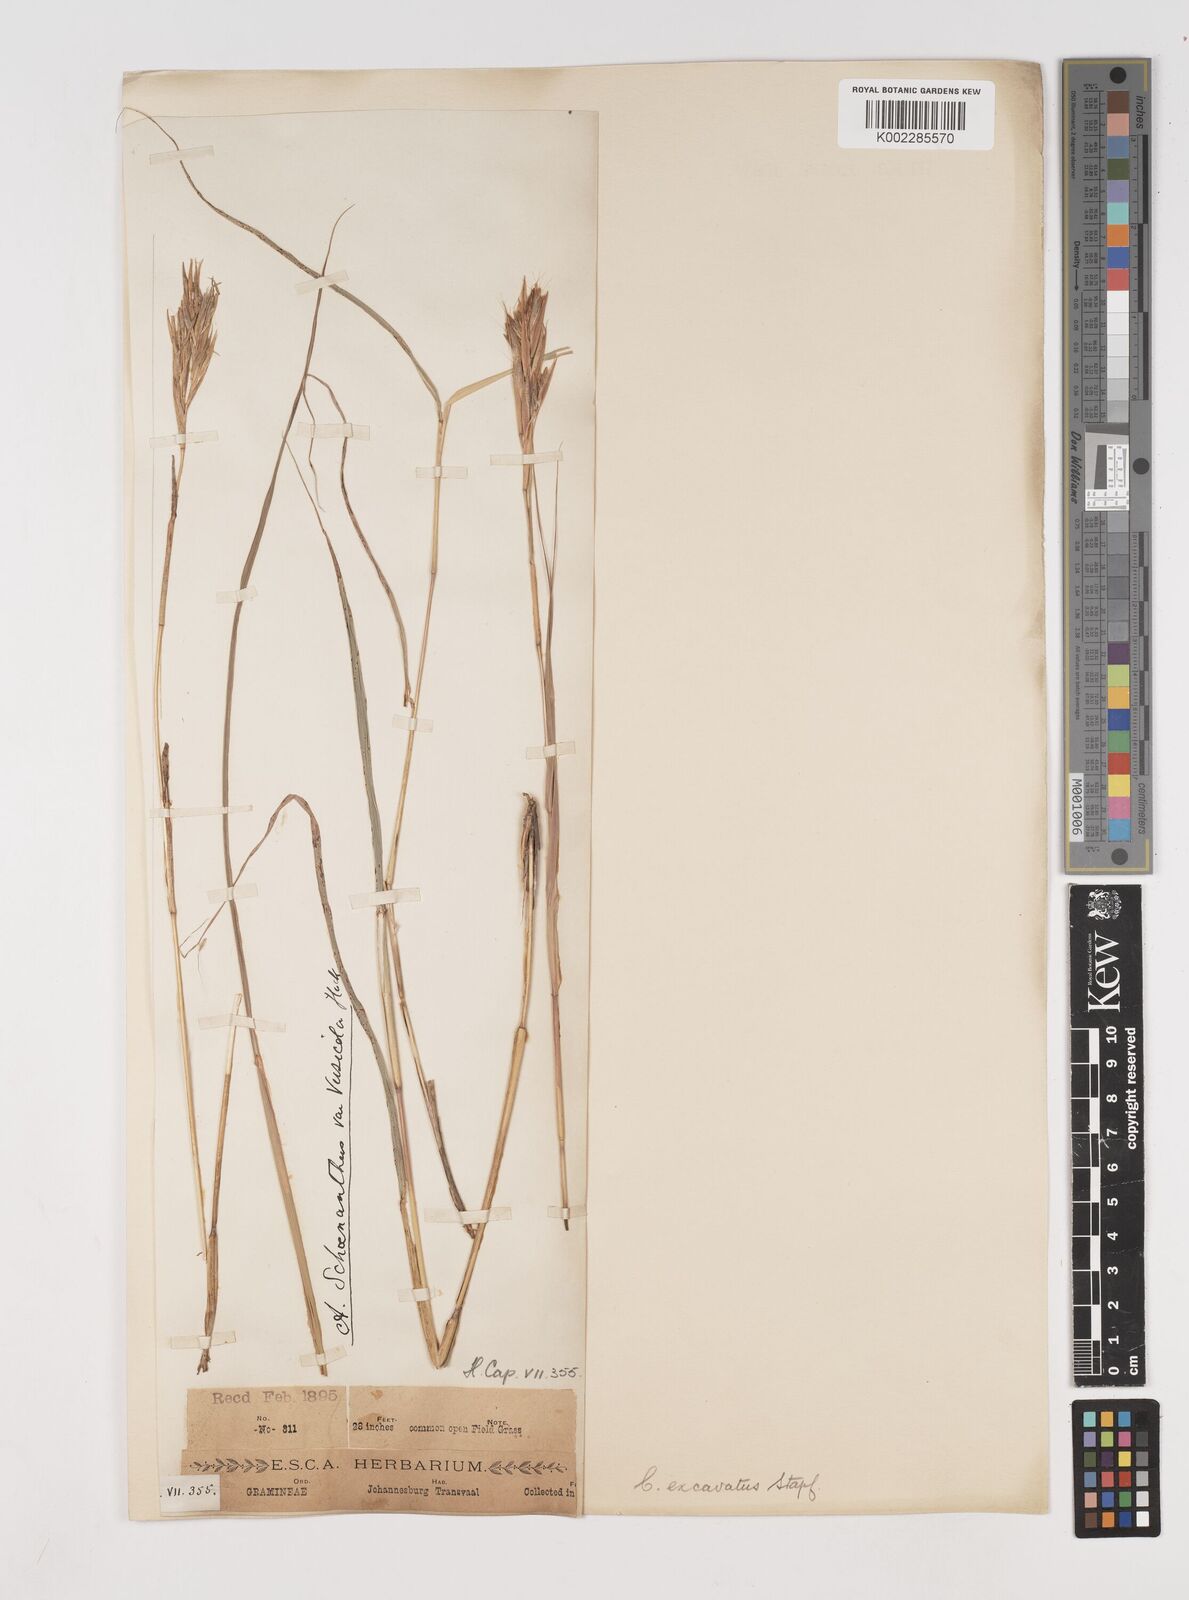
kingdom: Plantae
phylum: Tracheophyta
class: Liliopsida
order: Poales
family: Poaceae
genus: Cymbopogon
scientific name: Cymbopogon caesius
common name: Kachi grass
